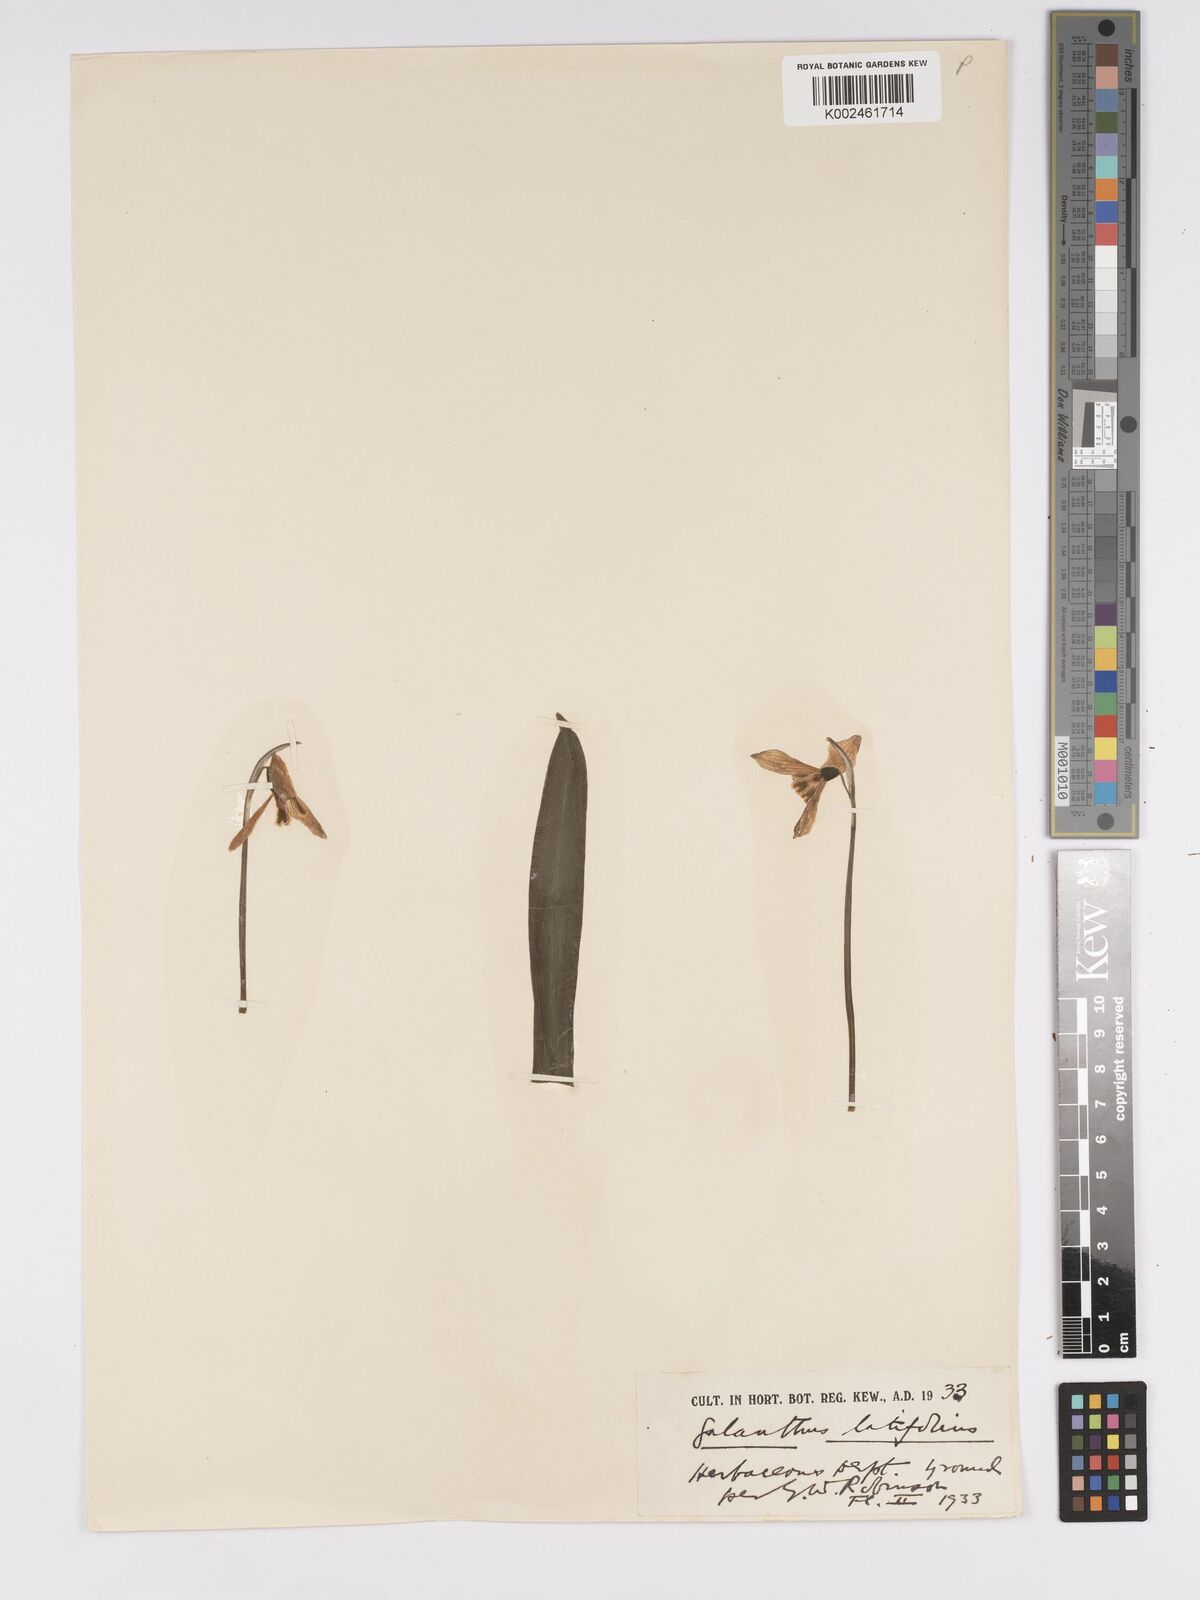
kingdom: Plantae
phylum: Tracheophyta
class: Liliopsida
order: Asparagales
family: Amaryllidaceae
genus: Galanthus
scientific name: Galanthus platyphyllus
